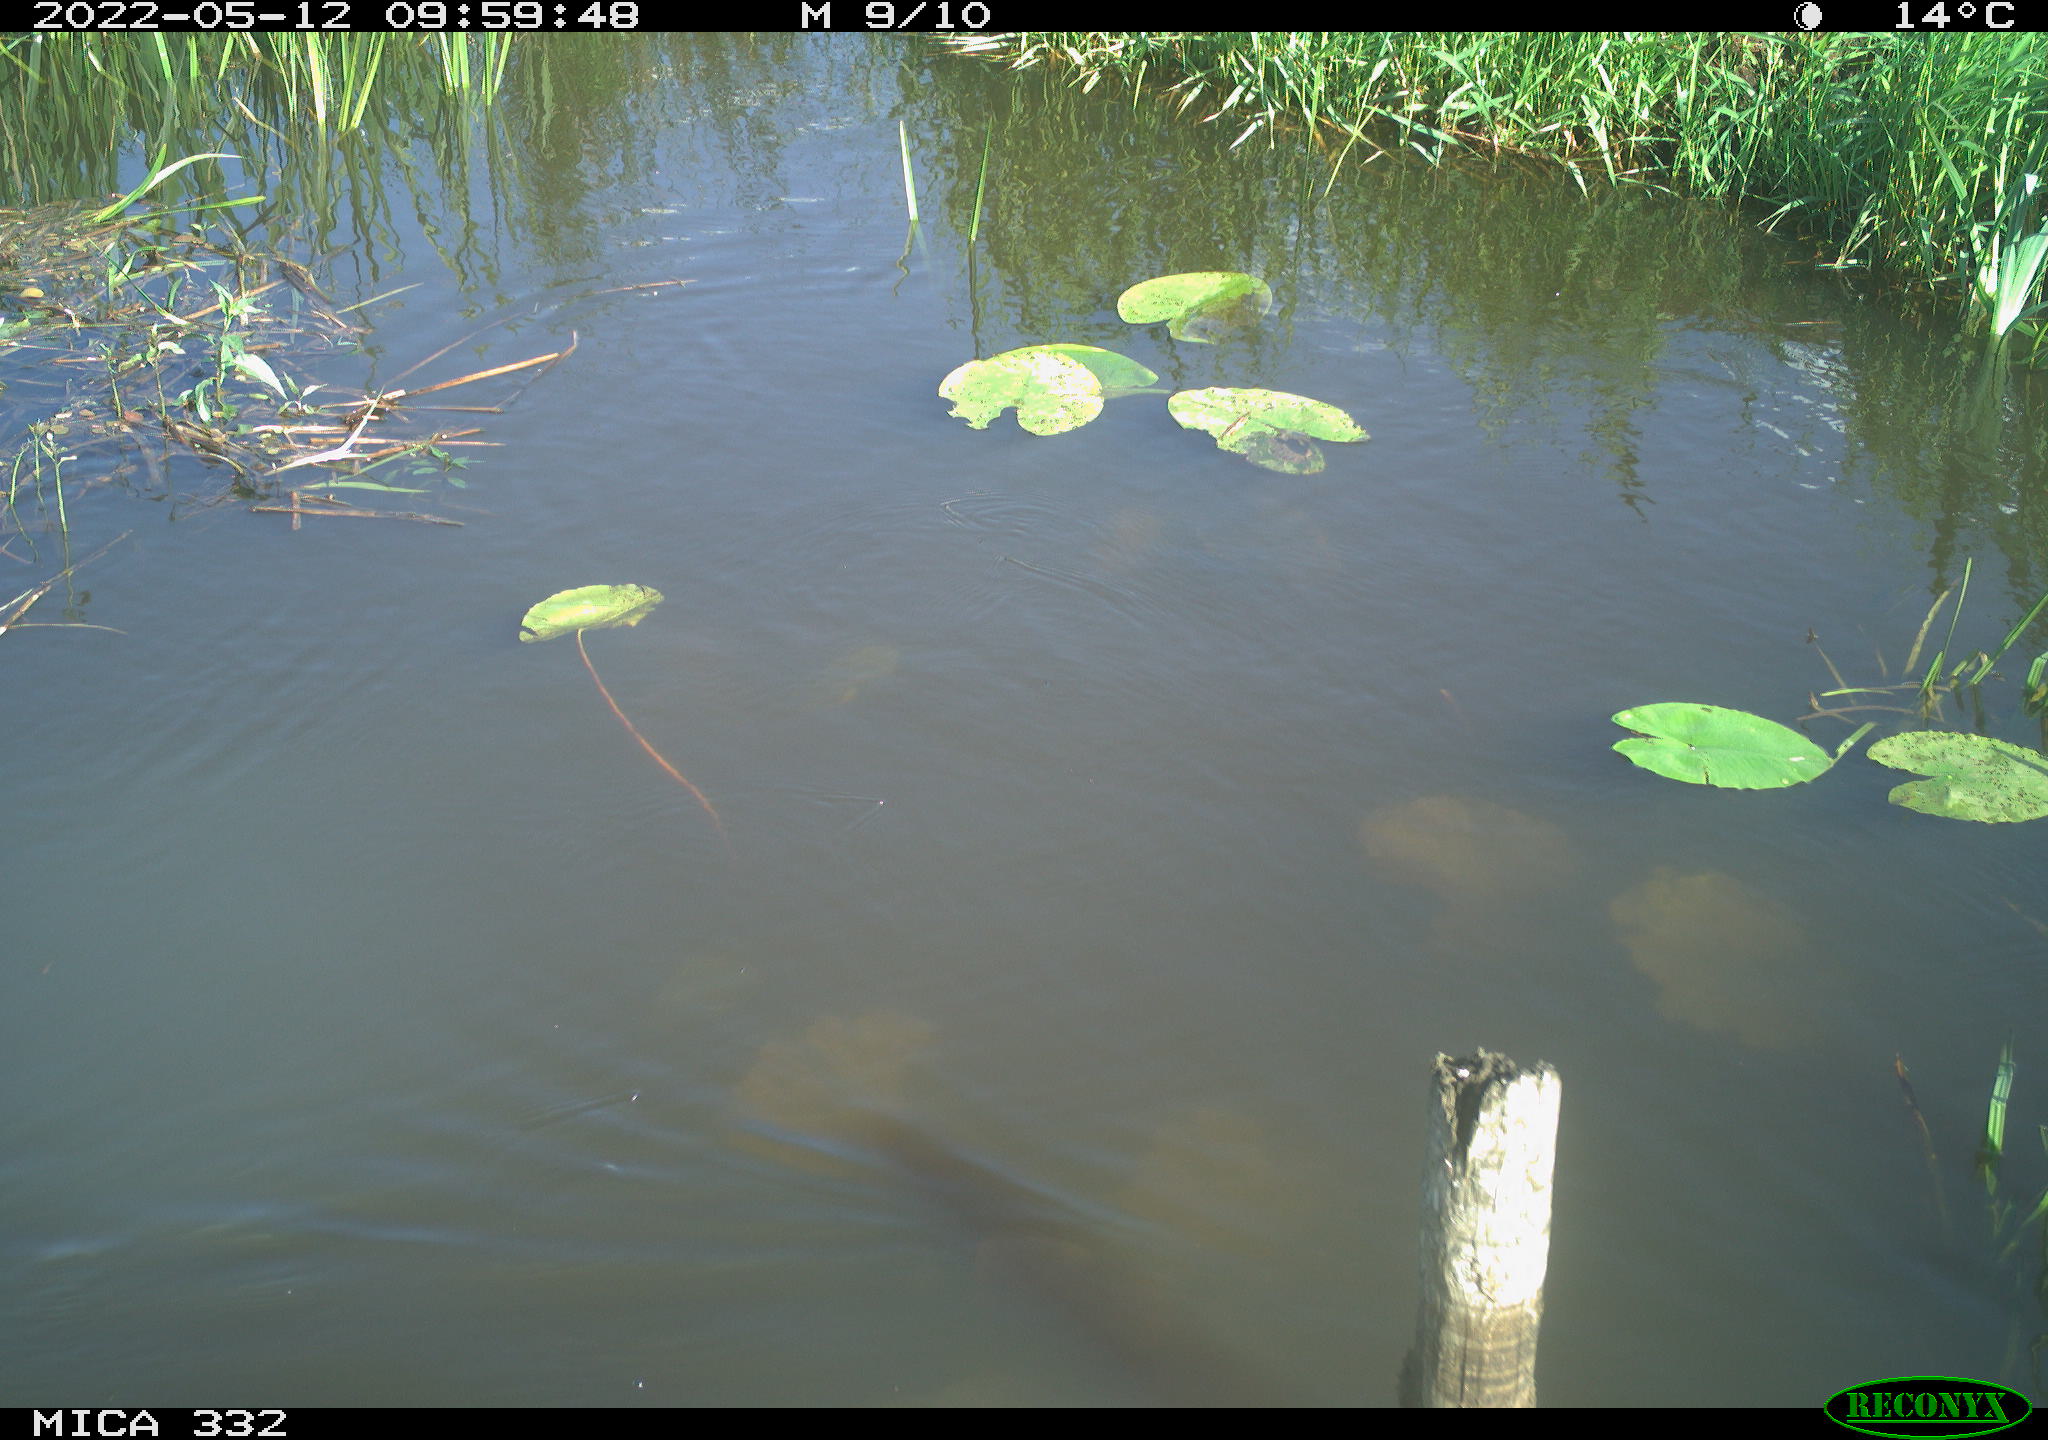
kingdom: Animalia
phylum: Chordata
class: Aves
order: Anseriformes
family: Anatidae
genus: Anas
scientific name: Anas platyrhynchos
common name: Mallard
